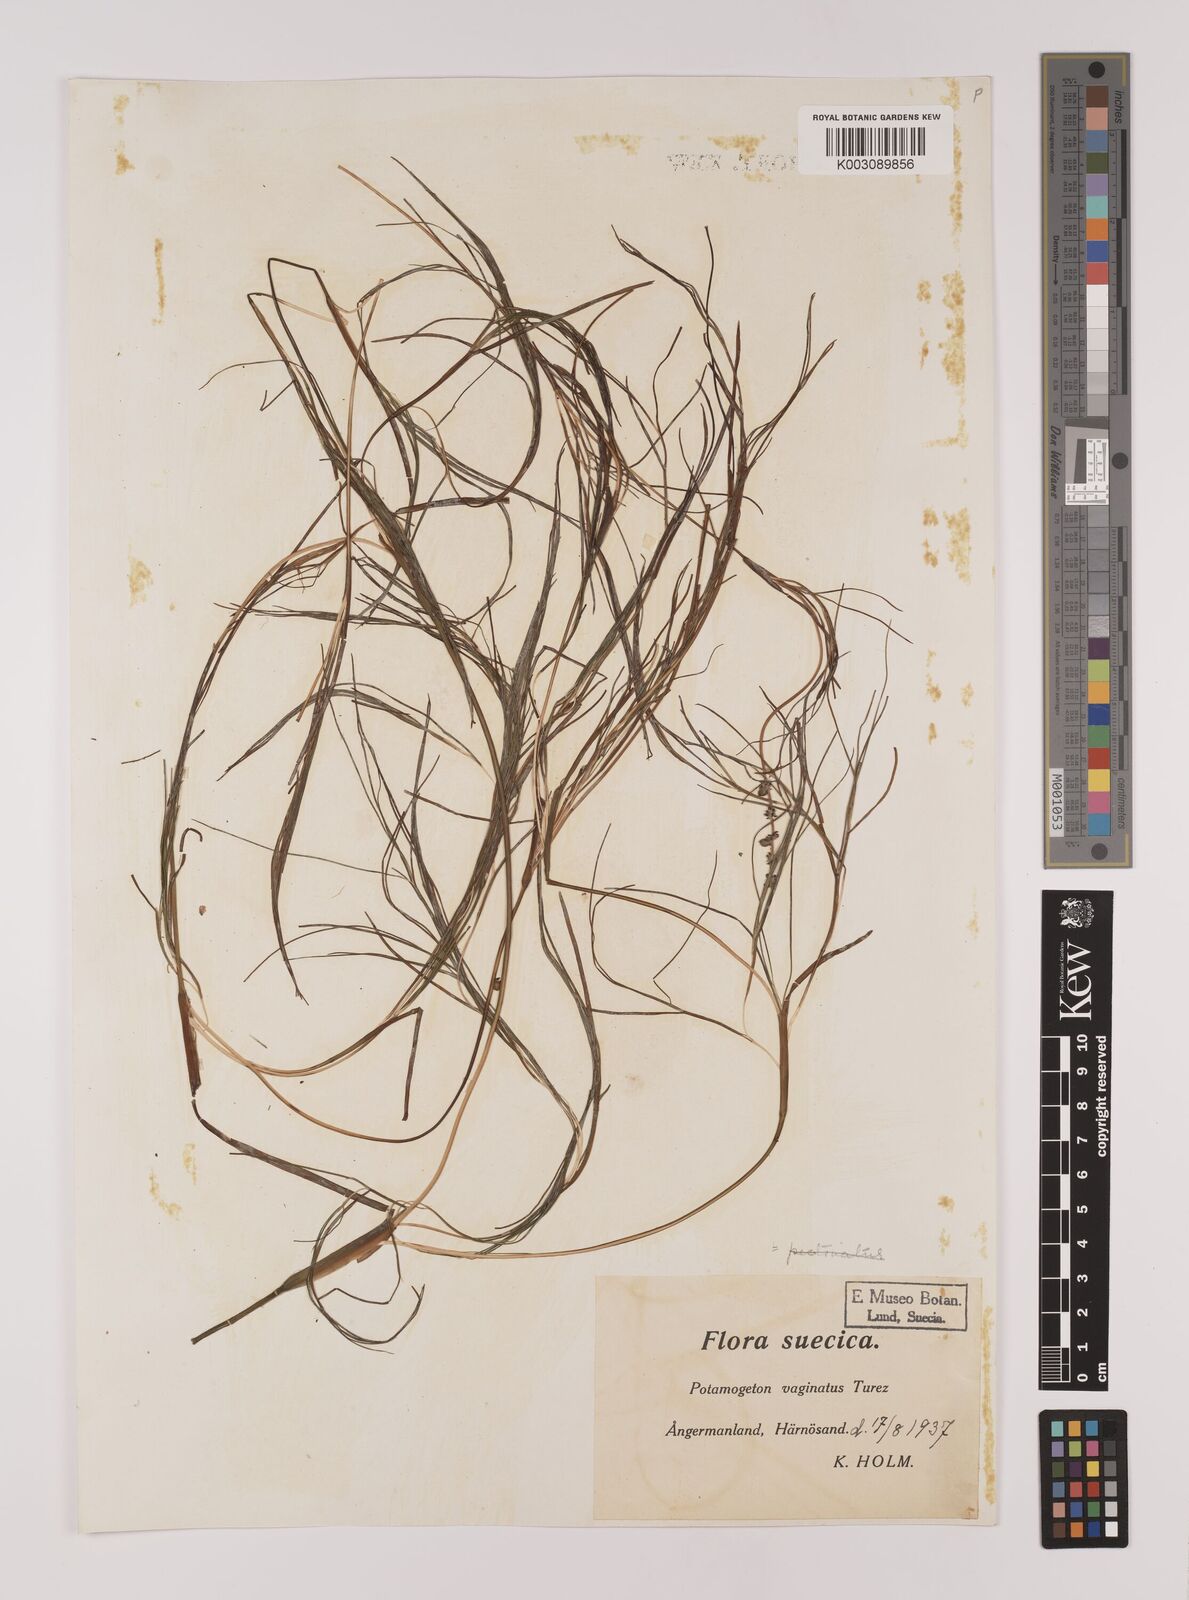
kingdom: Plantae
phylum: Tracheophyta
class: Liliopsida
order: Alismatales
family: Potamogetonaceae
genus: Stuckenia
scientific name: Stuckenia pectinata
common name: Sago pondweed
